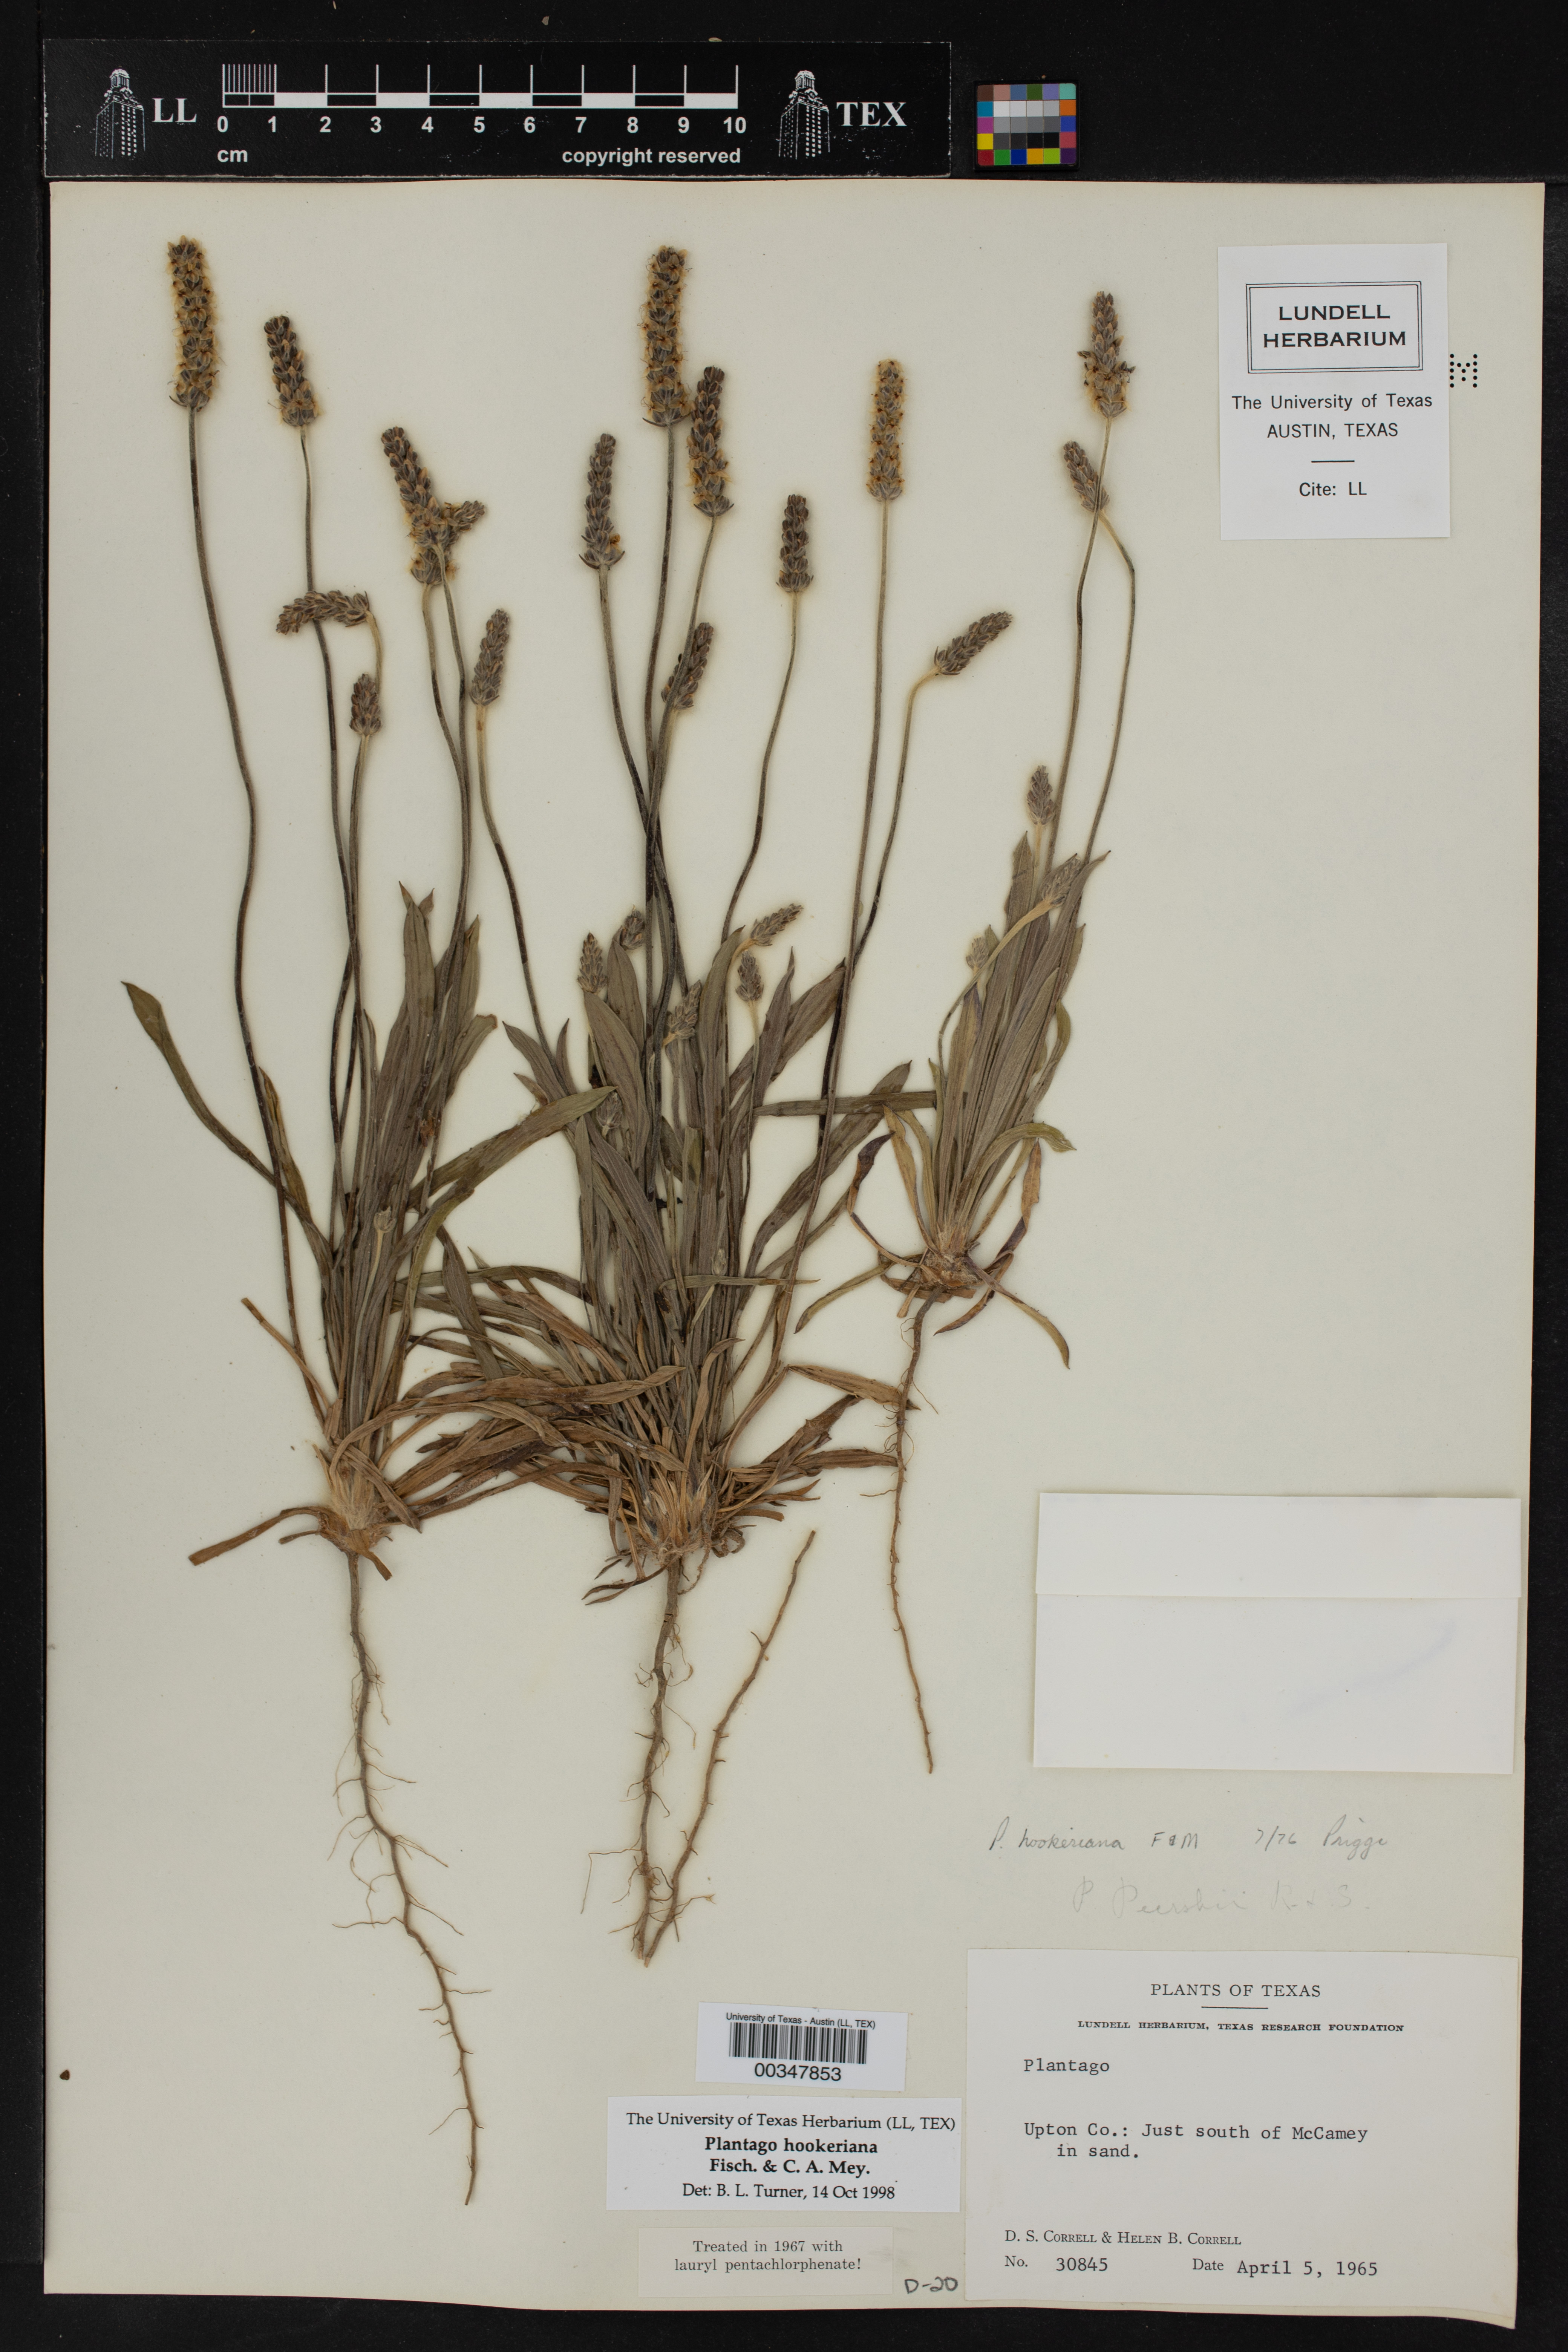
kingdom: Plantae
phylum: Tracheophyta
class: Magnoliopsida
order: Lamiales
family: Plantaginaceae
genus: Plantago
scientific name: Plantago hookeriana
